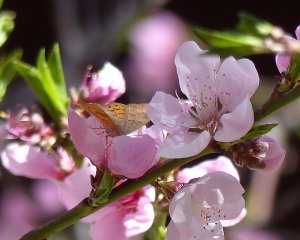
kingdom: Animalia
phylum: Arthropoda
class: Insecta
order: Lepidoptera
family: Lycaenidae
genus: Emesis
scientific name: Emesis zela
